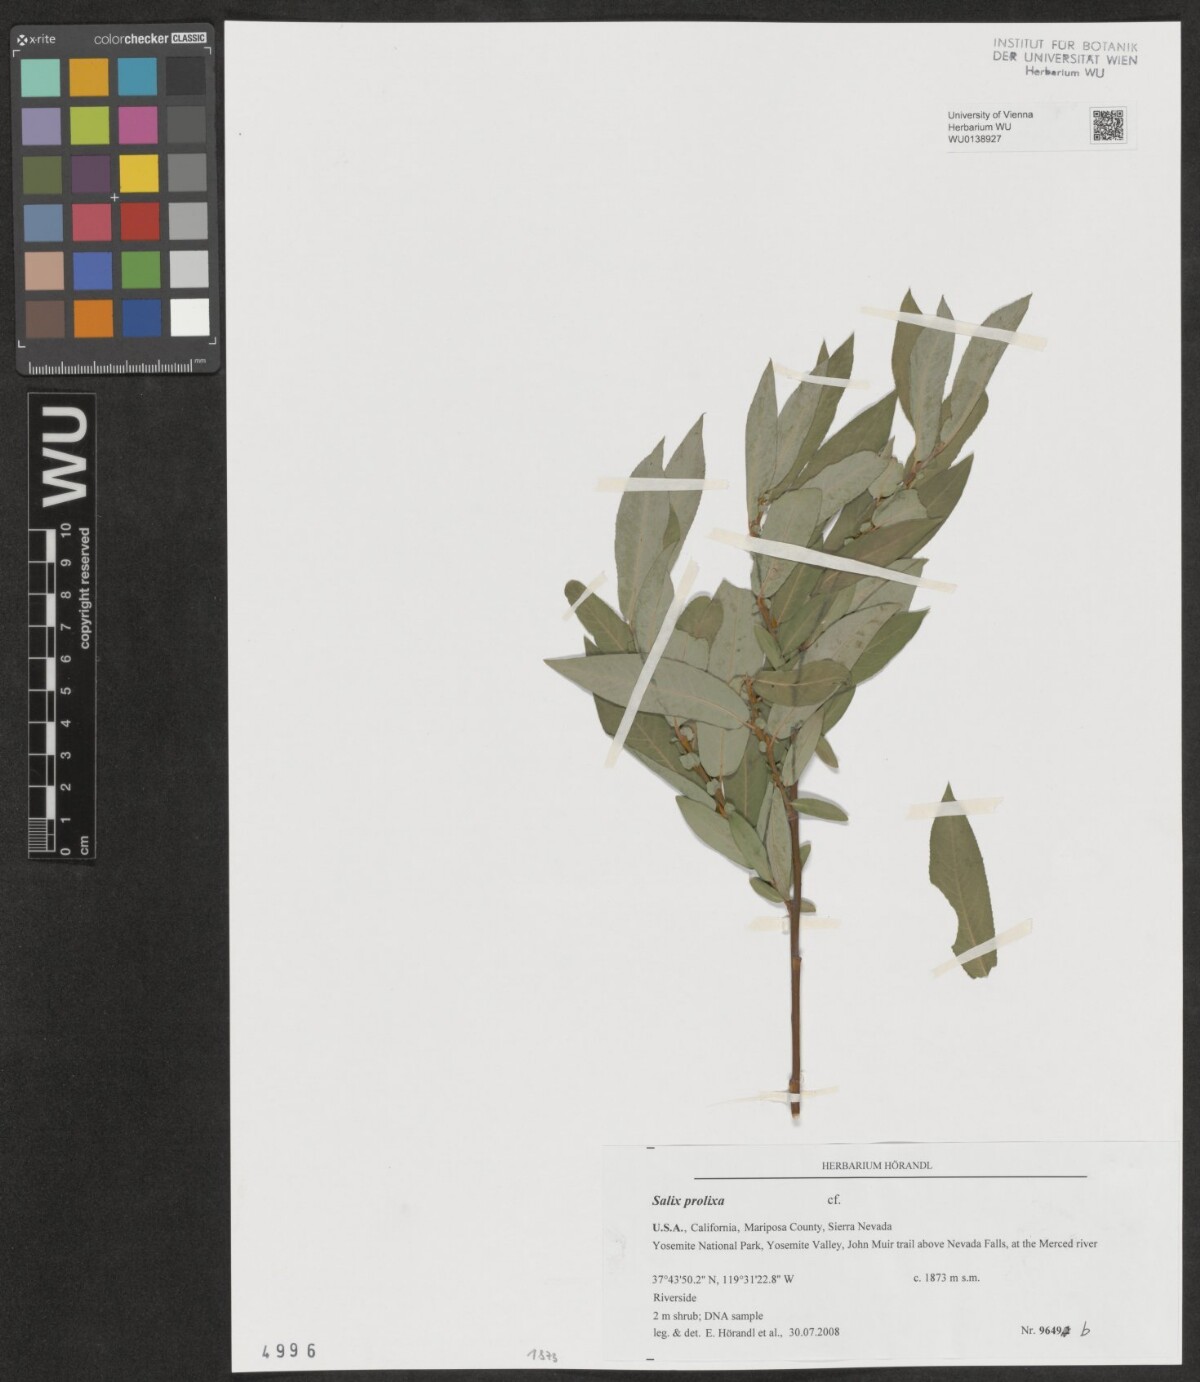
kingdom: Plantae
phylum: Tracheophyta
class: Magnoliopsida
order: Malpighiales
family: Salicaceae
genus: Salix
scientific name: Salix prolixa
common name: Mackenzie's willow
